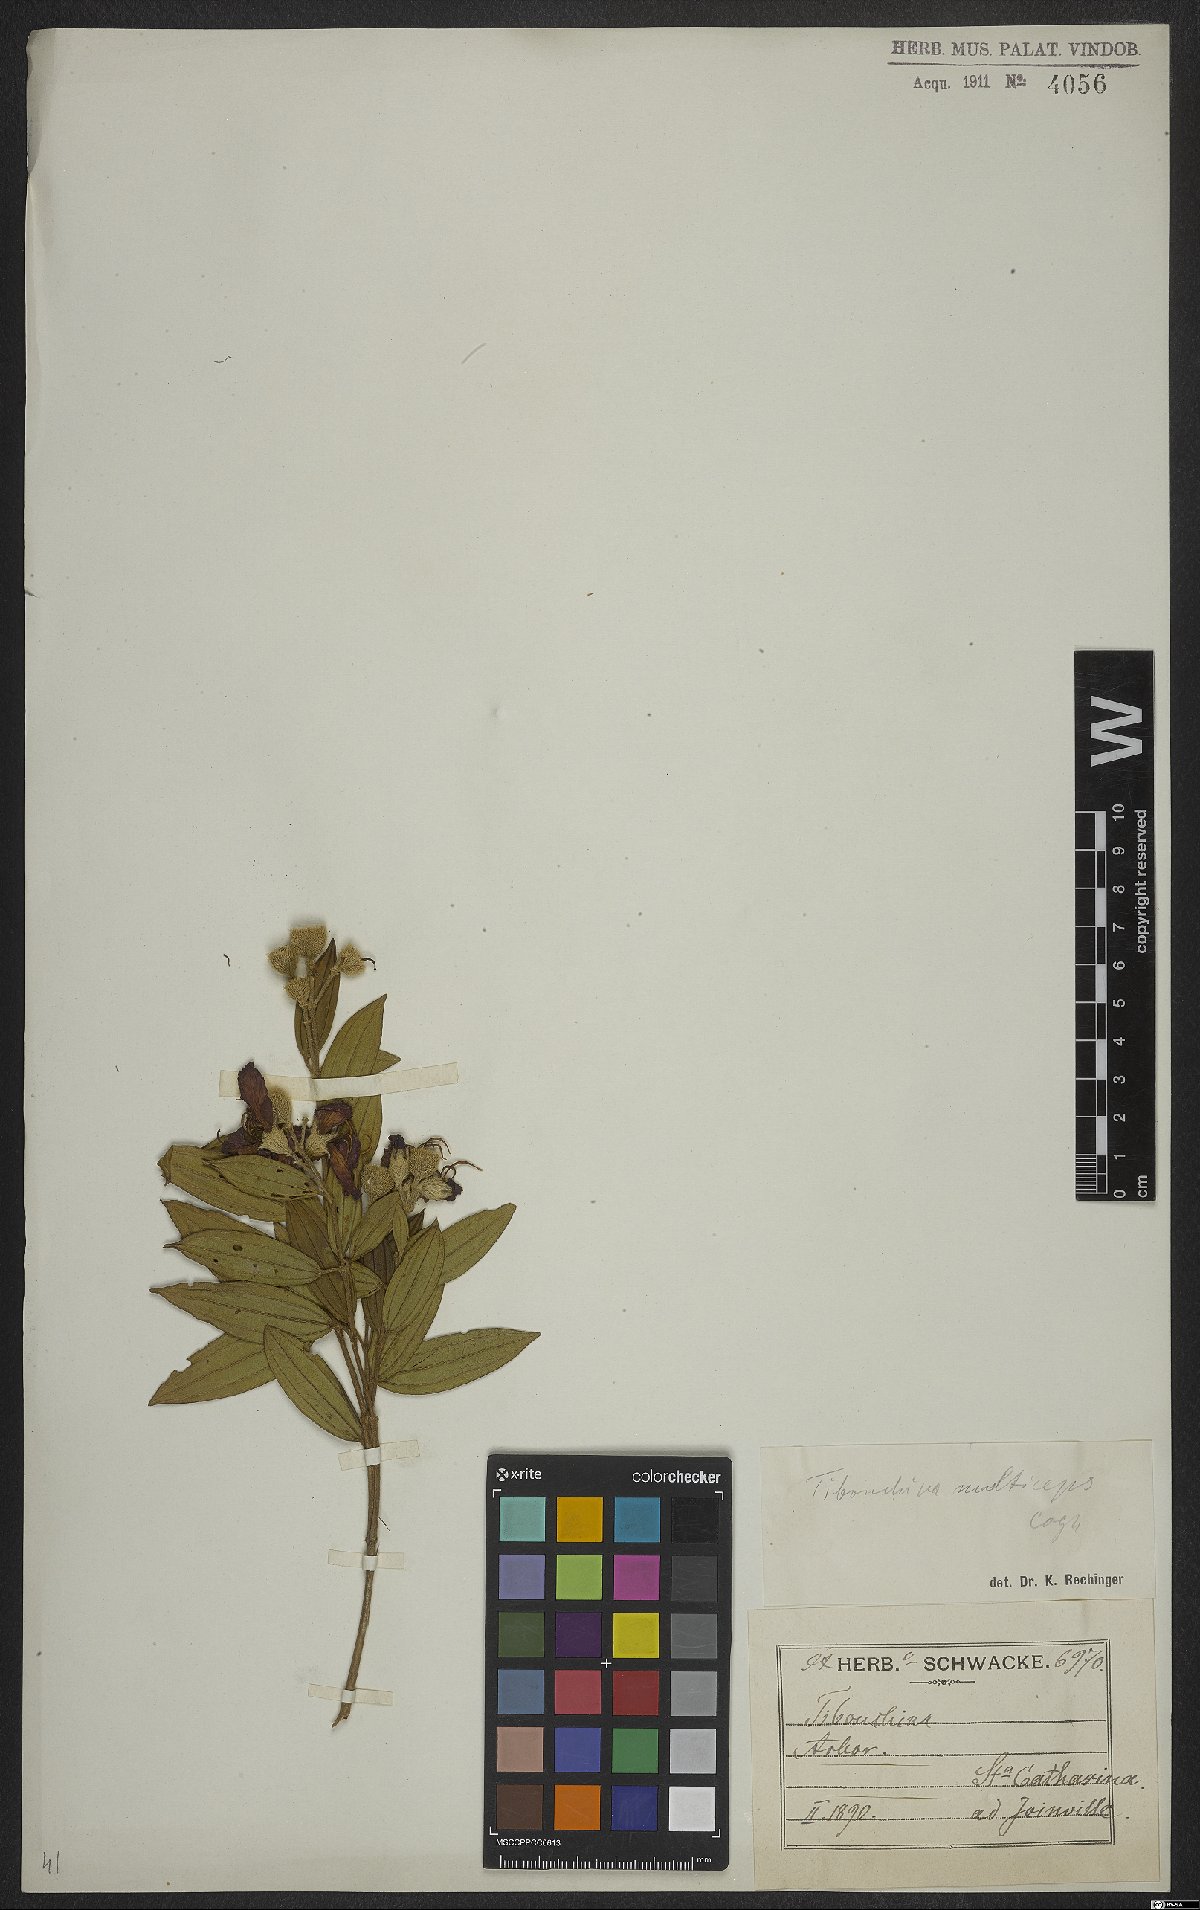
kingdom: Plantae
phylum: Tracheophyta
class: Magnoliopsida
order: Myrtales
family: Melastomataceae
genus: Pleroma
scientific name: Pleroma trichopodum
